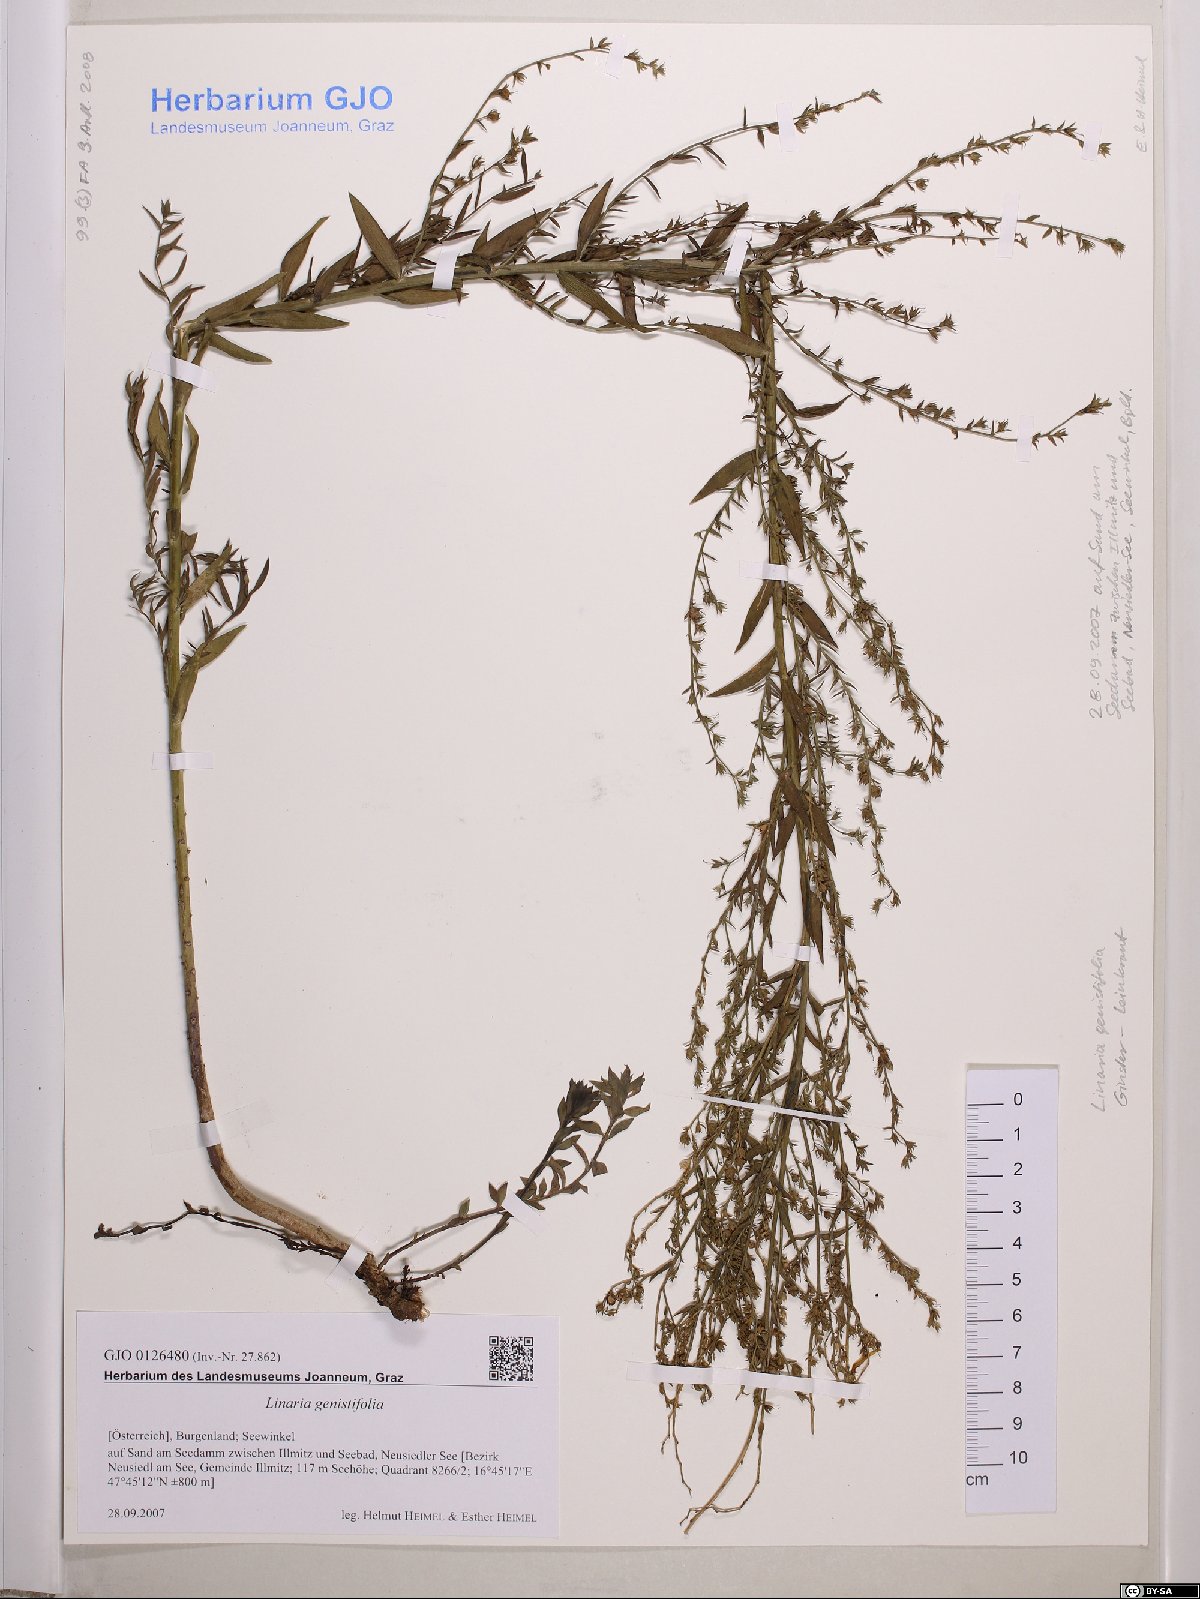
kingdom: Plantae
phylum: Tracheophyta
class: Magnoliopsida
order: Lamiales
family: Plantaginaceae
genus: Linaria
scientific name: Linaria genistifolia
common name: Broomleaf toadflax
